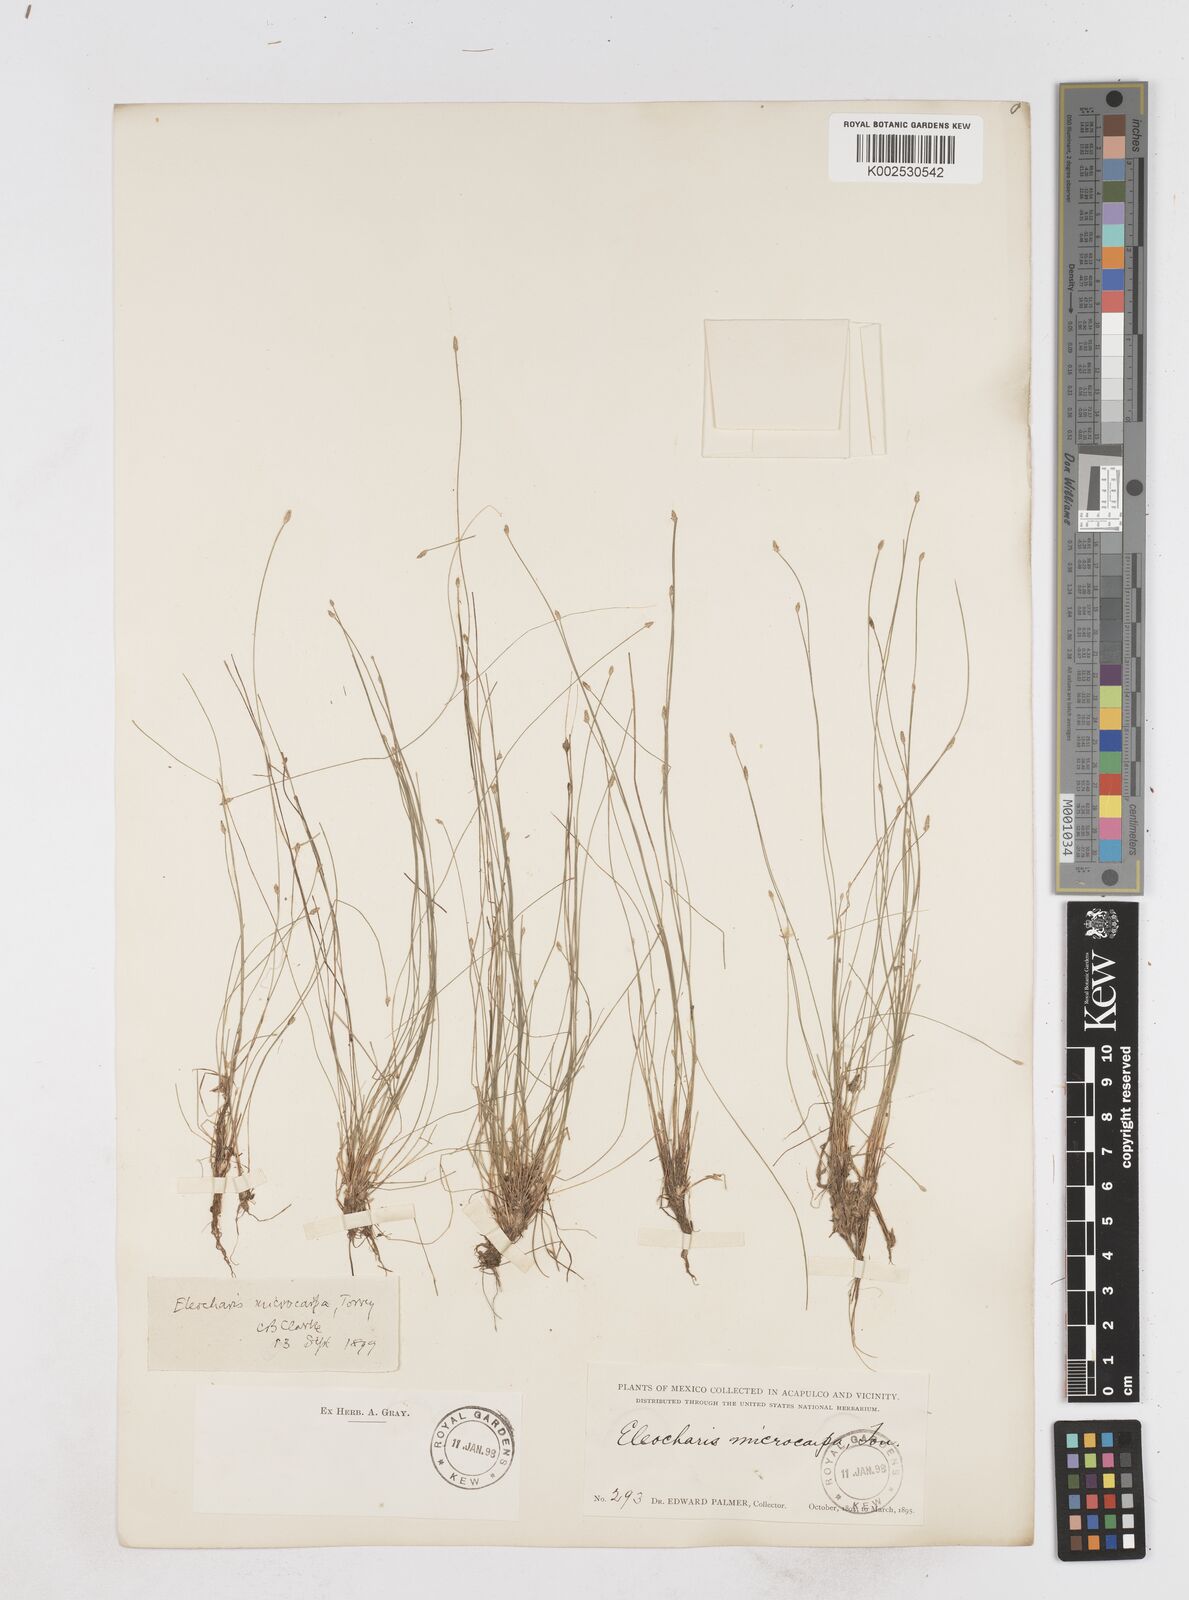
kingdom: Plantae
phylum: Tracheophyta
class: Liliopsida
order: Poales
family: Cyperaceae
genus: Eleocharis
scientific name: Eleocharis microcarpa
